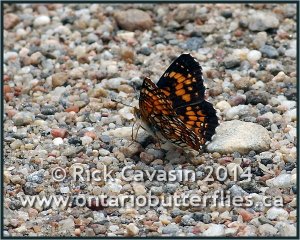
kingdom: Animalia
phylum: Arthropoda
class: Insecta
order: Lepidoptera
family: Nymphalidae
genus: Chlosyne
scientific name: Chlosyne harrisii
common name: Harris's Checkerspot
